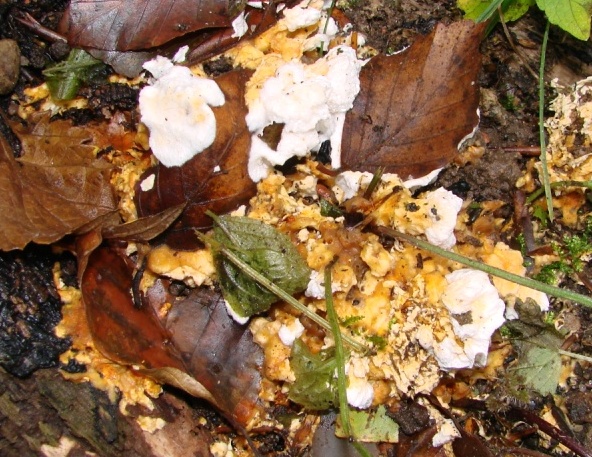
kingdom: Fungi
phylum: Basidiomycota
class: Agaricomycetes
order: Polyporales
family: Steccherinaceae
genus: Loweomyces
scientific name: Loweomyces wynneae
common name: krybende blødporesvamp
